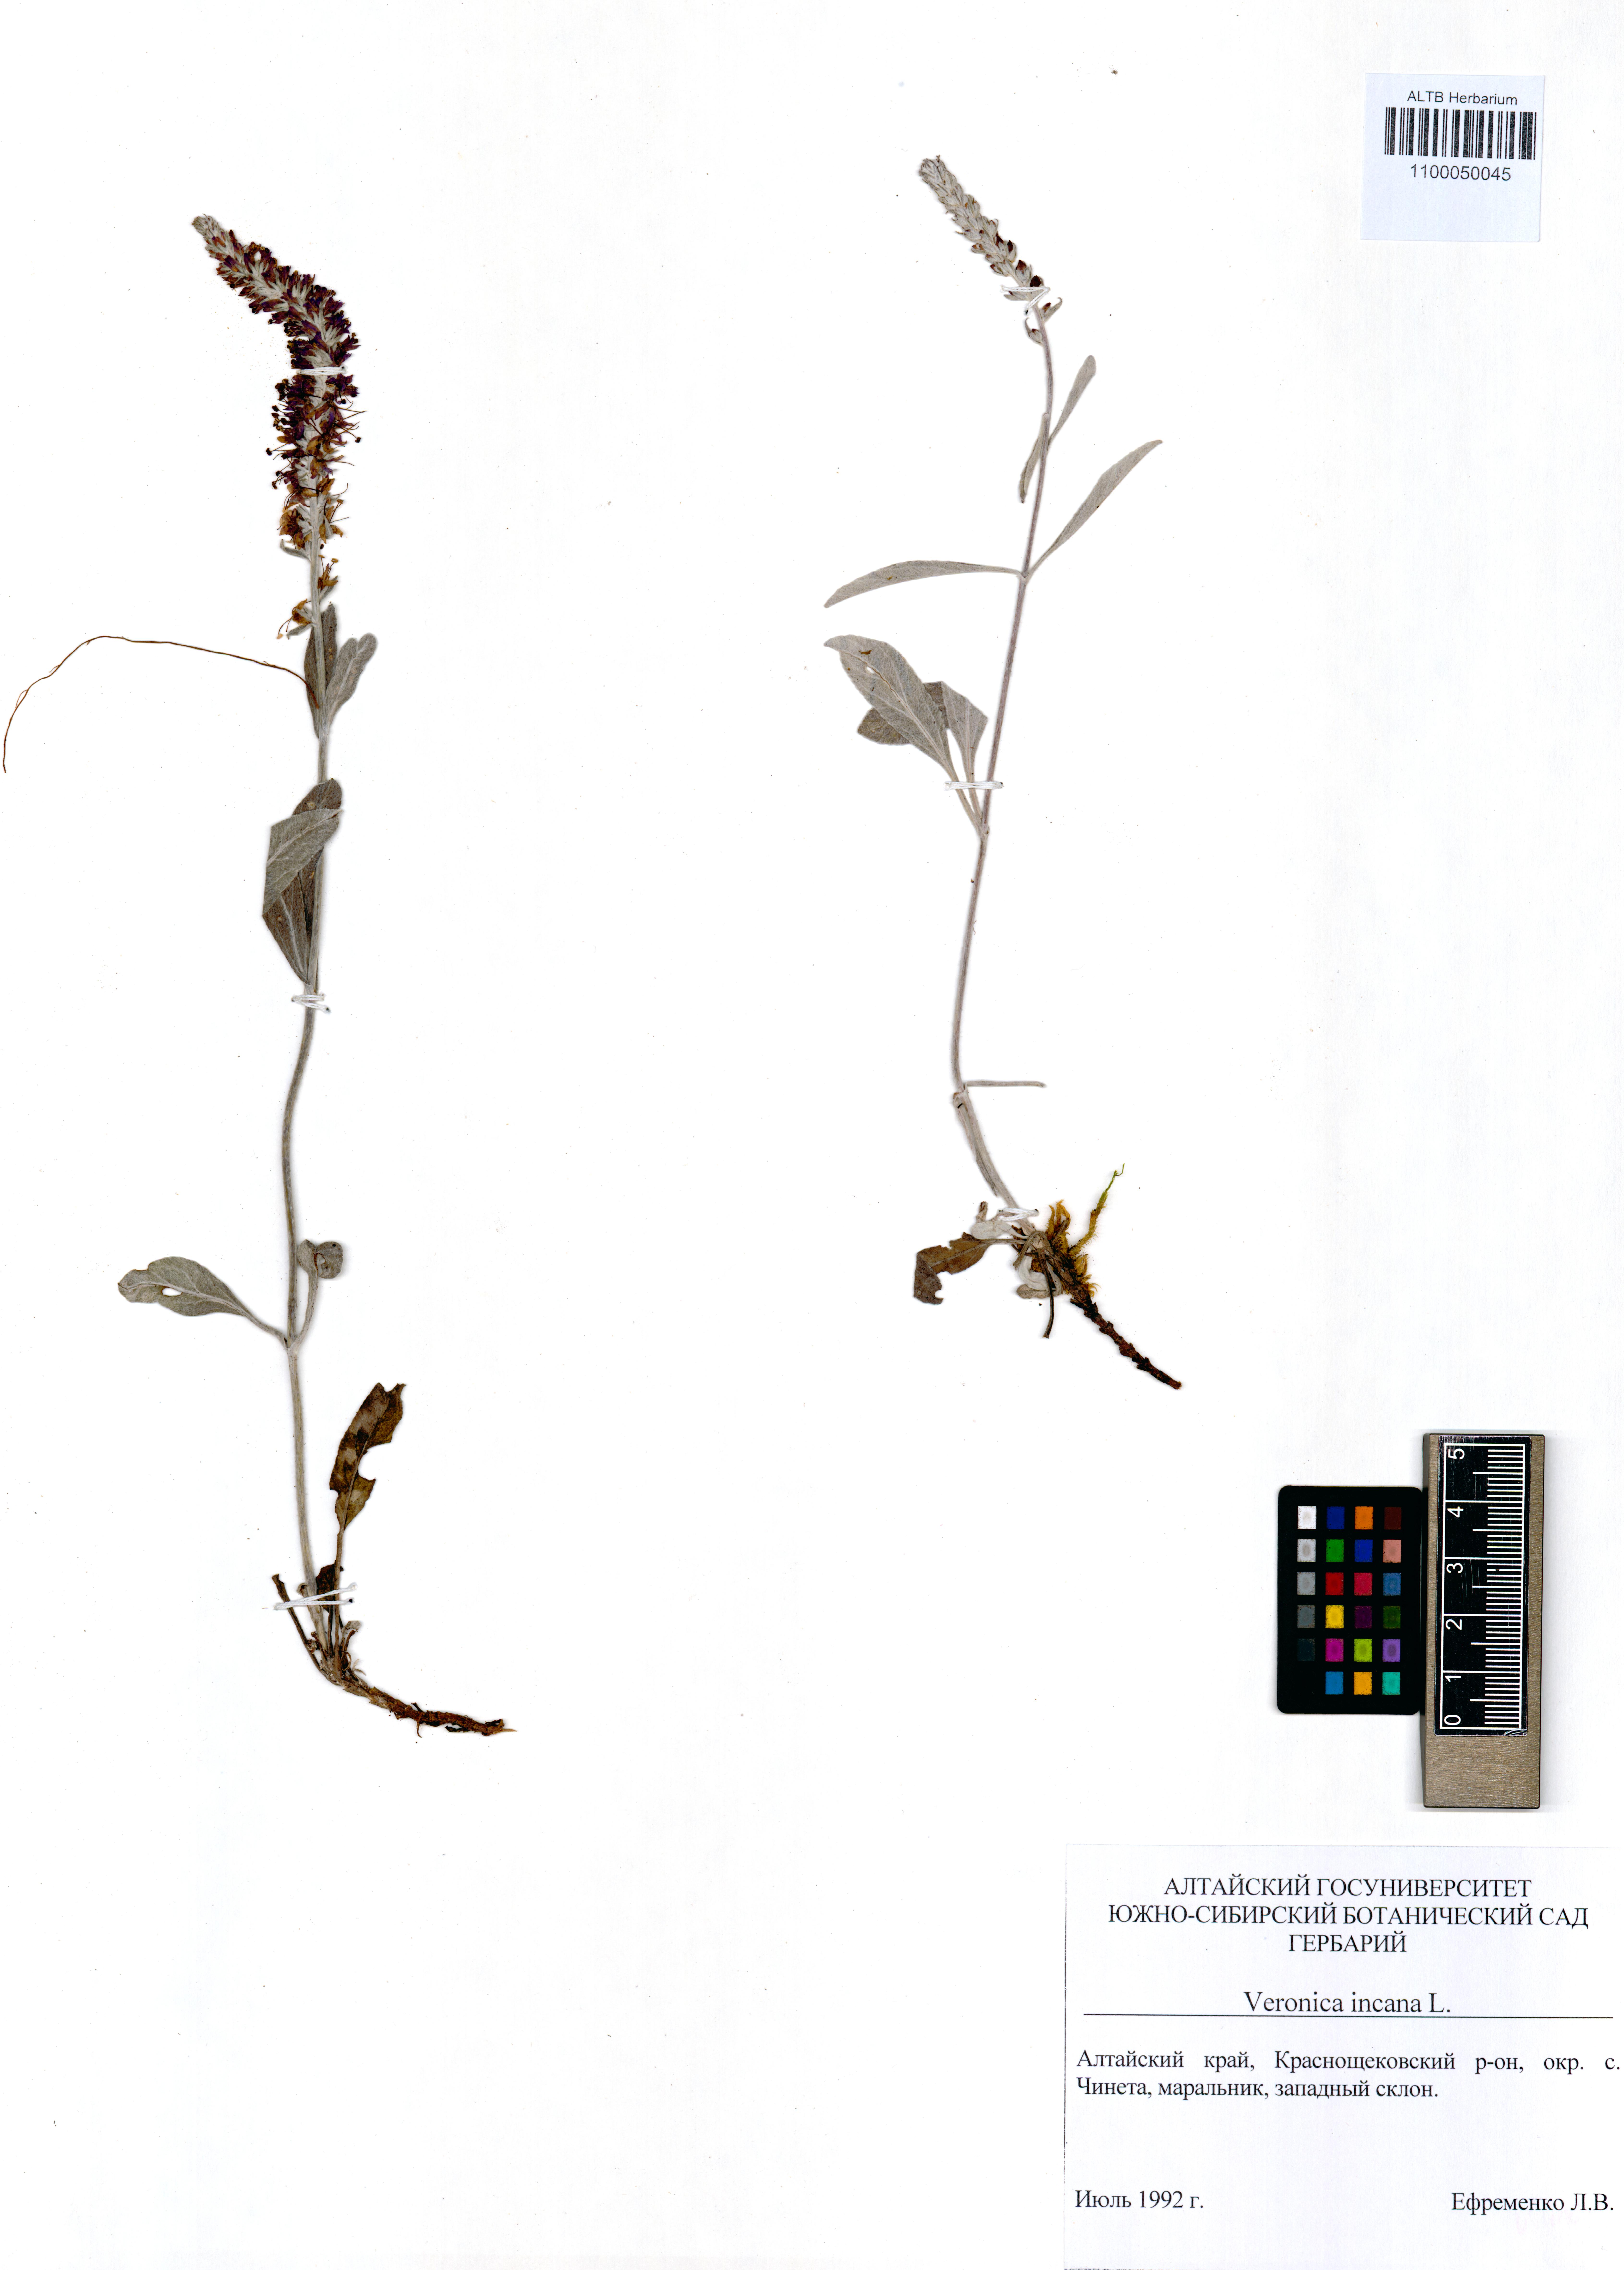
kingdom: Plantae
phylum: Tracheophyta
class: Magnoliopsida
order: Lamiales
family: Plantaginaceae
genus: Veronica
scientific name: Veronica incana
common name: Silver speedwell
